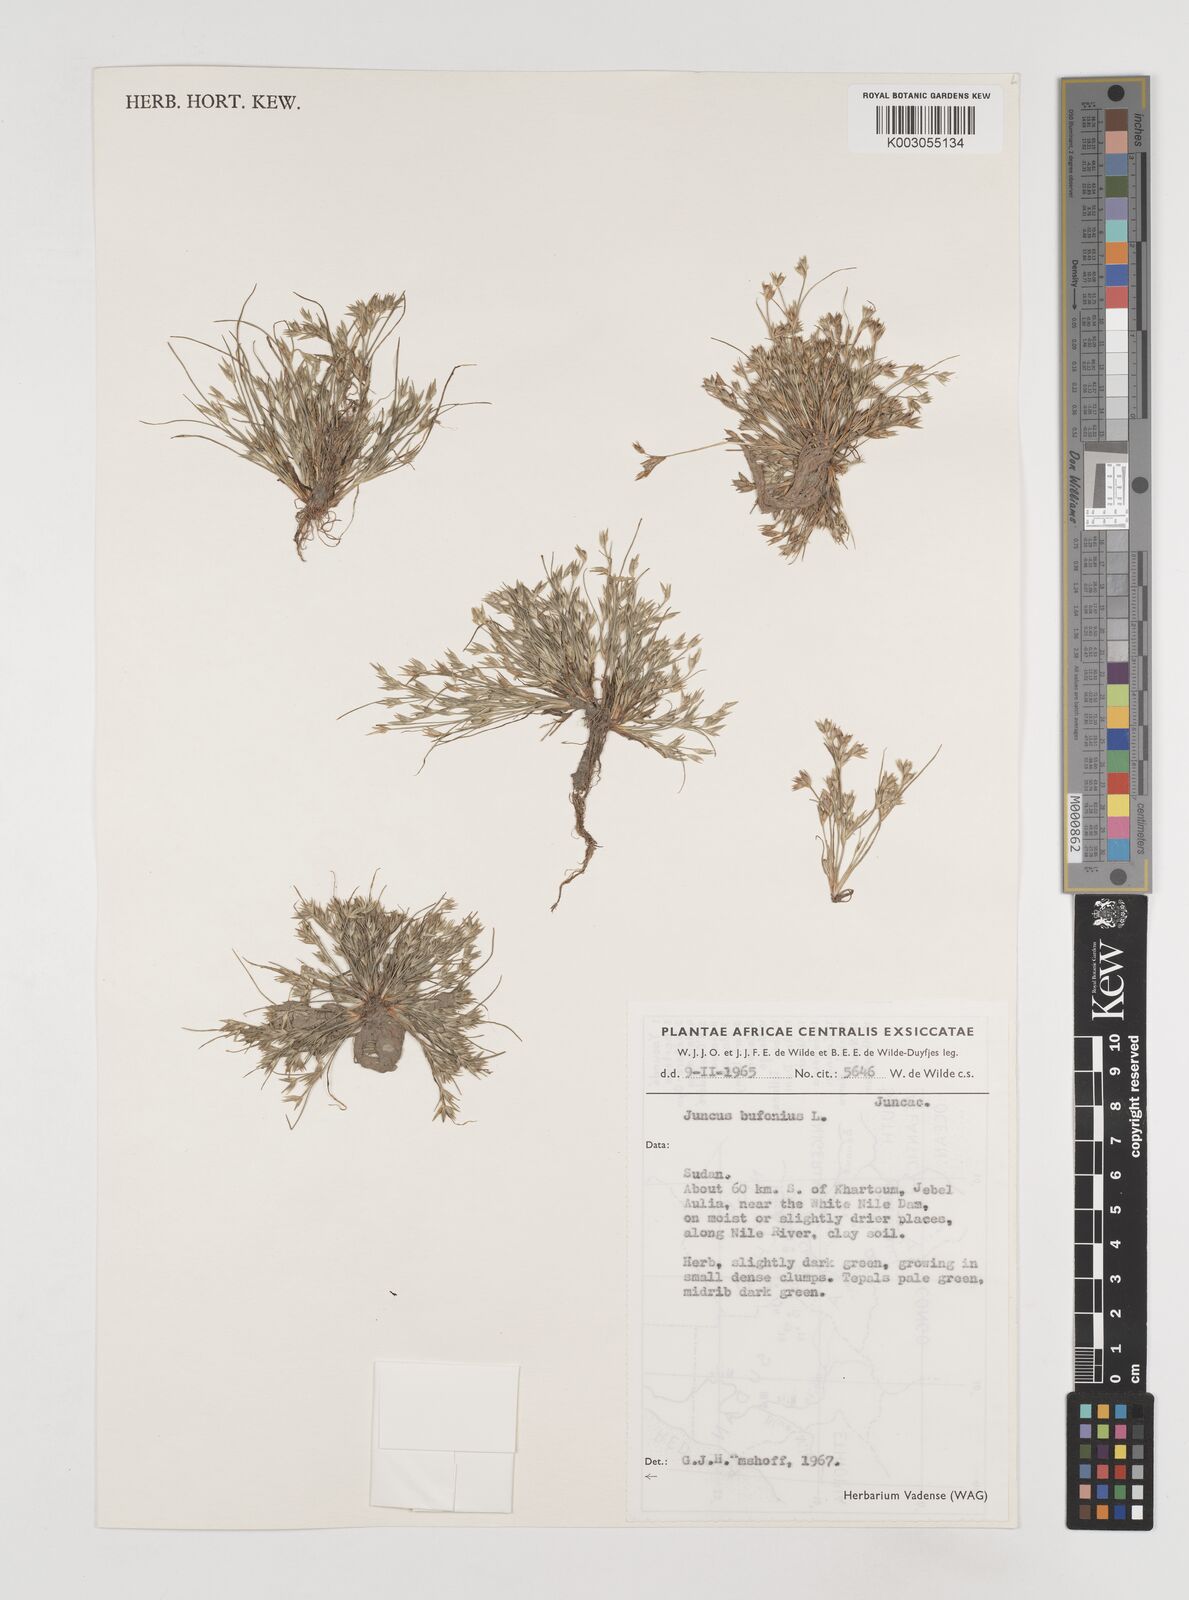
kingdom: Plantae
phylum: Tracheophyta
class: Liliopsida
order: Poales
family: Juncaceae
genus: Juncus
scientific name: Juncus bufonius
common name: Toad rush
